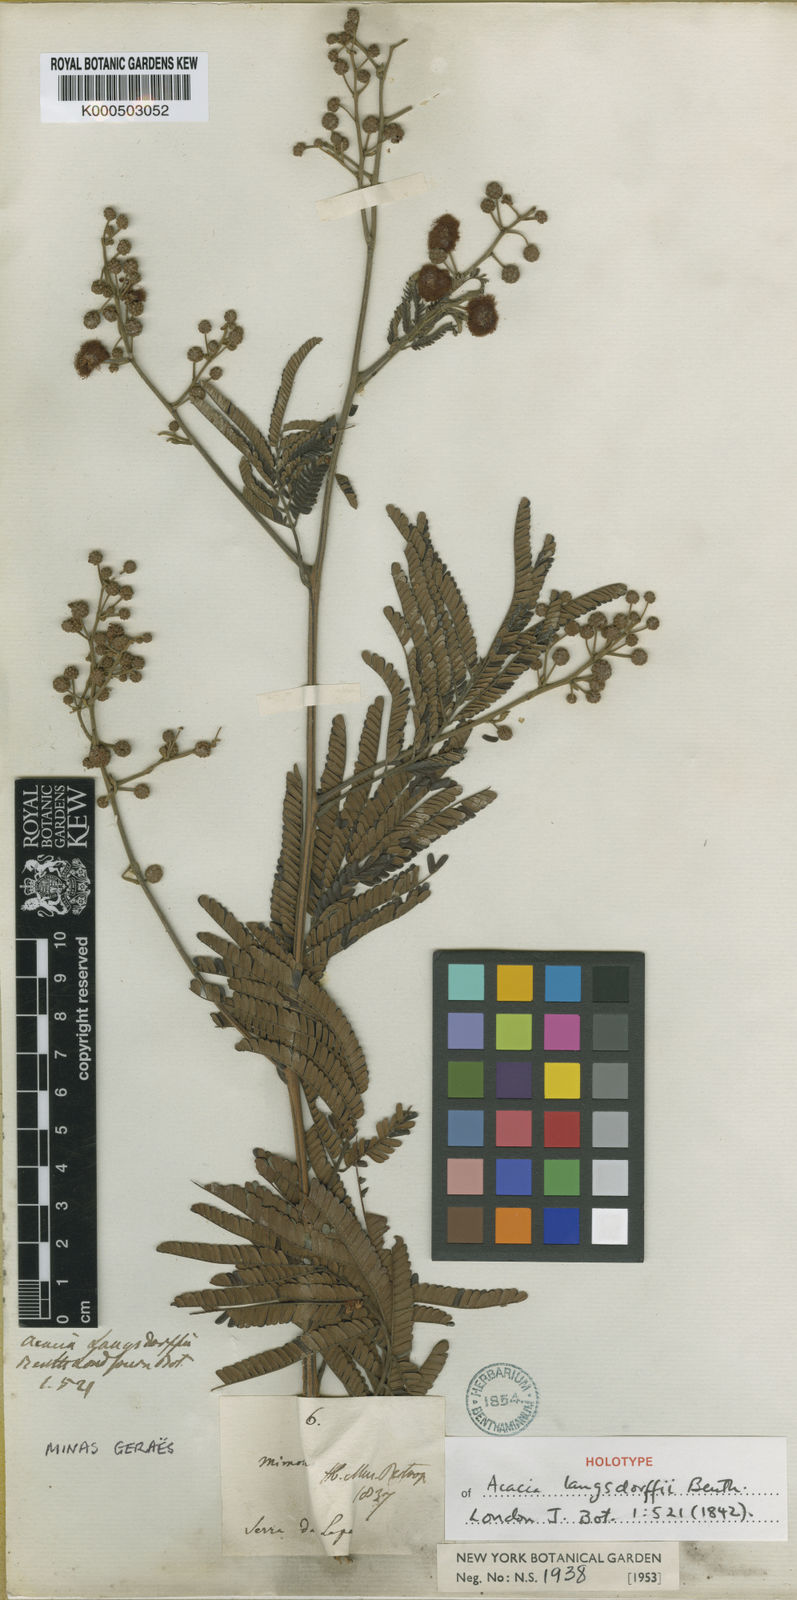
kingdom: Plantae
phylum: Tracheophyta
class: Magnoliopsida
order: Fabales
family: Fabaceae
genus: Acacia
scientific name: Acacia
